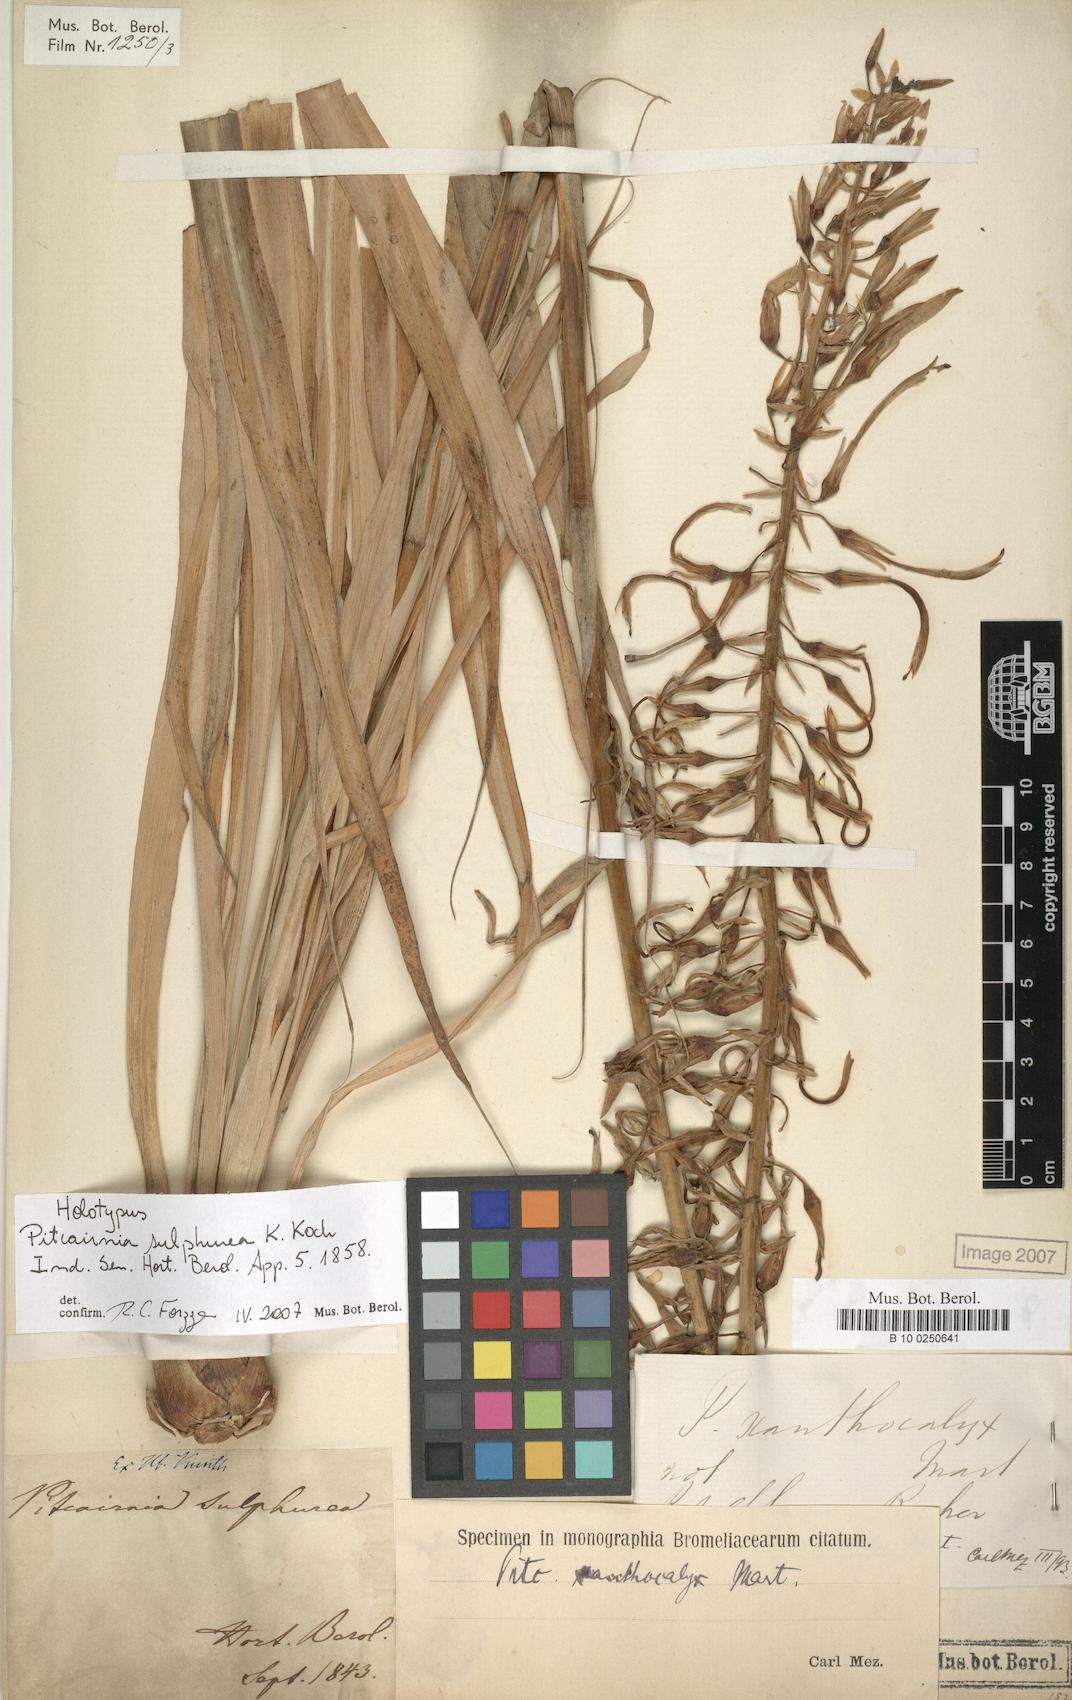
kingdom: Plantae
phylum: Tracheophyta
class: Liliopsida
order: Poales
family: Bromeliaceae
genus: Pitcairnia
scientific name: Pitcairnia sulphurea
